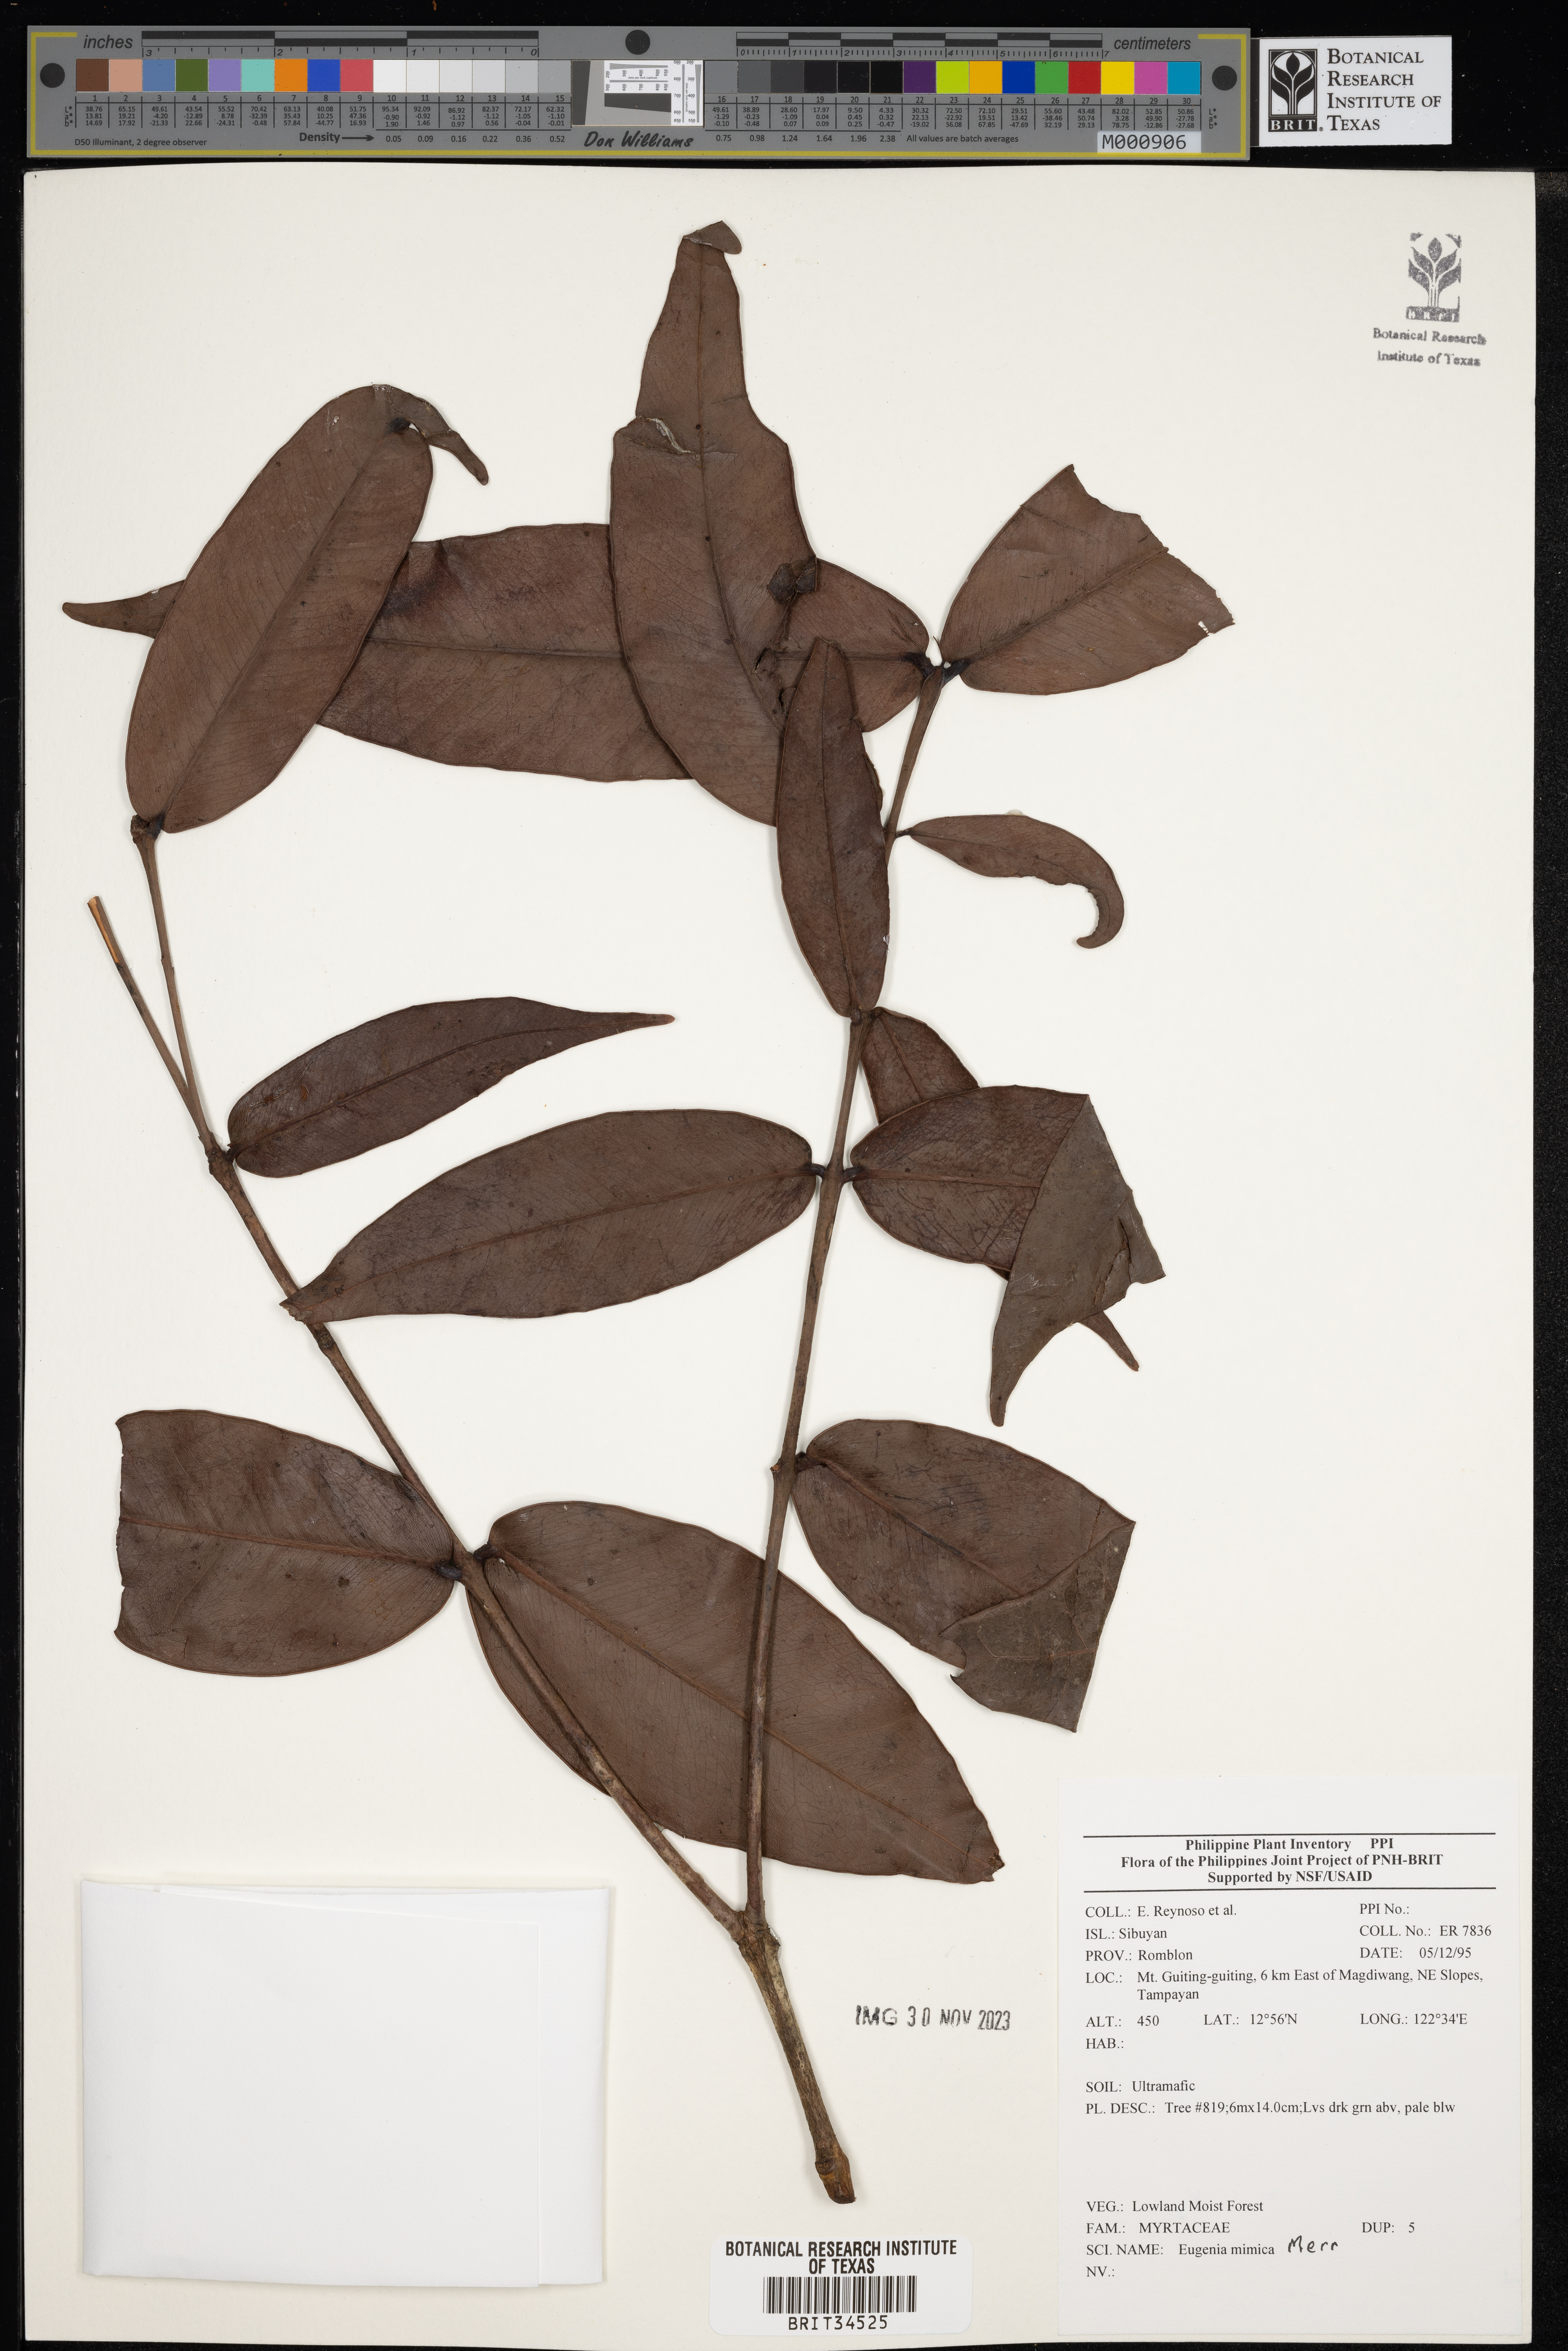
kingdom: Plantae
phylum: Tracheophyta
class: Magnoliopsida
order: Myrtales
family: Myrtaceae
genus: Eugenia
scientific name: Eugenia
